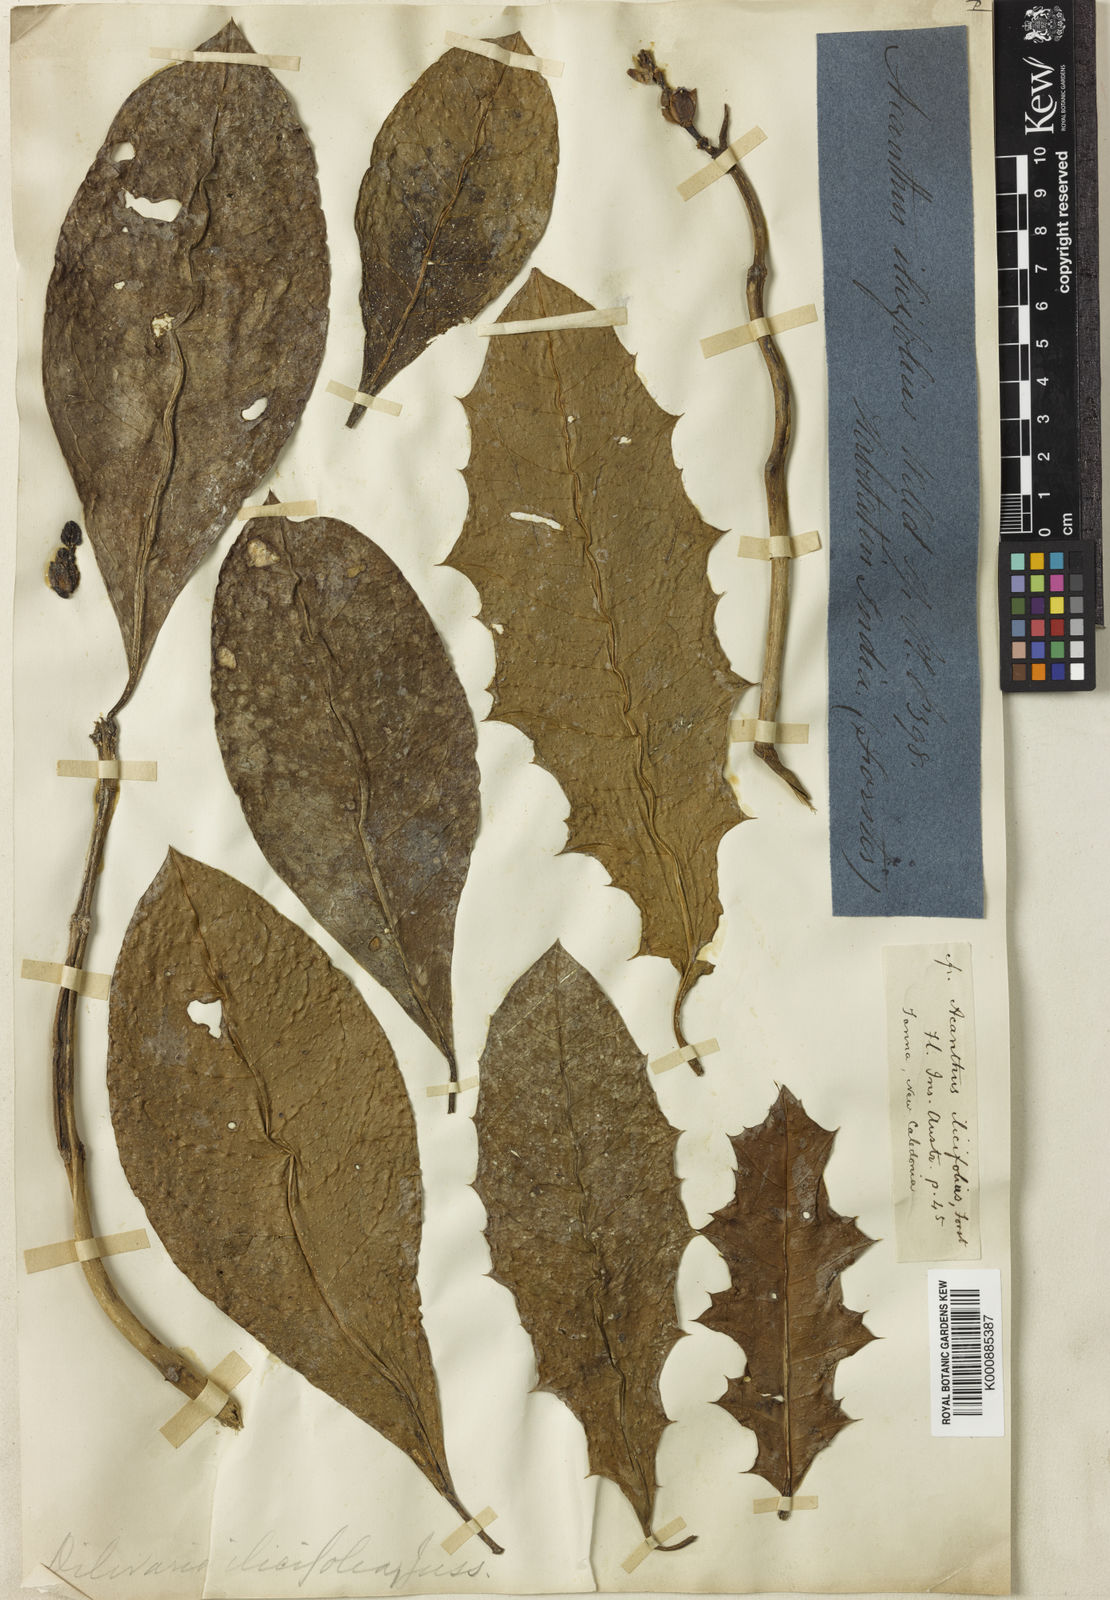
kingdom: Plantae
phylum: Tracheophyta
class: Magnoliopsida
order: Lamiales
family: Acanthaceae
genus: Acanthus
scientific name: Acanthus ilicifolius
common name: Holy mangrove
